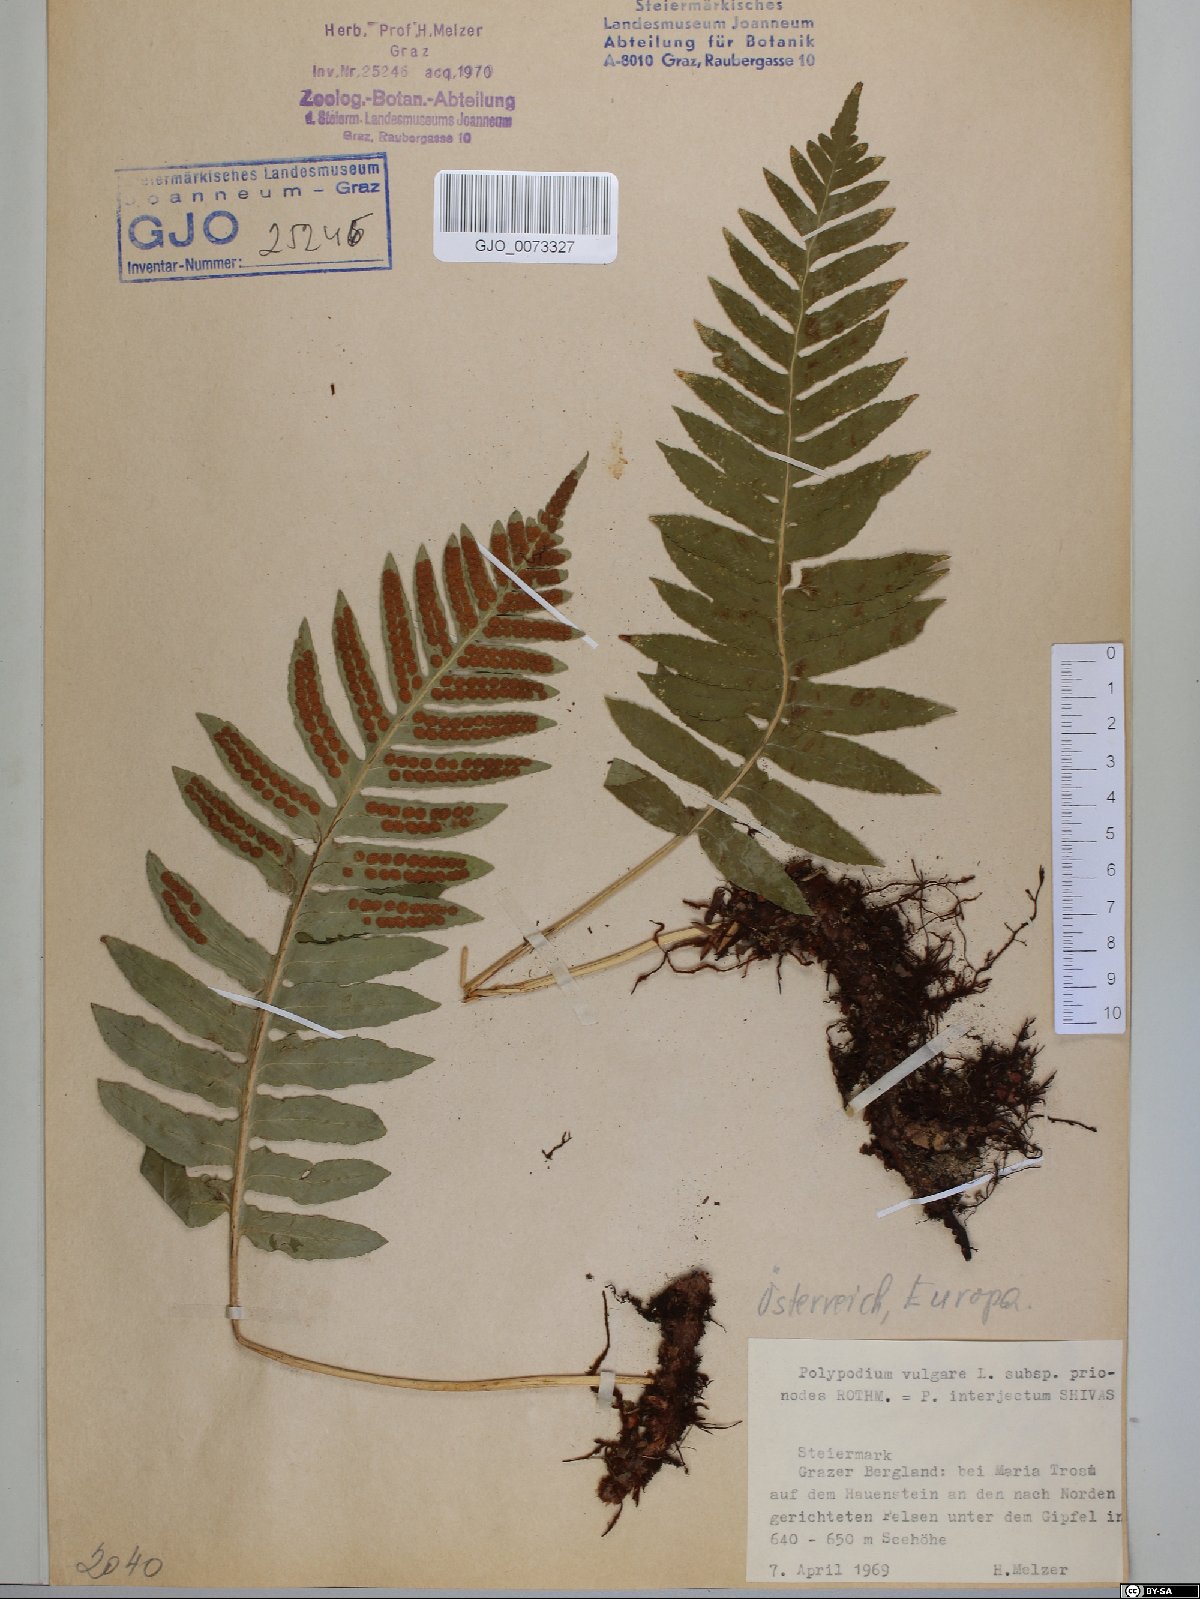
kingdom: Plantae
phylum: Tracheophyta
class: Polypodiopsida
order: Polypodiales
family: Polypodiaceae
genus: Polypodium
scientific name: Polypodium interjectum
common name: Intermediate polypody
